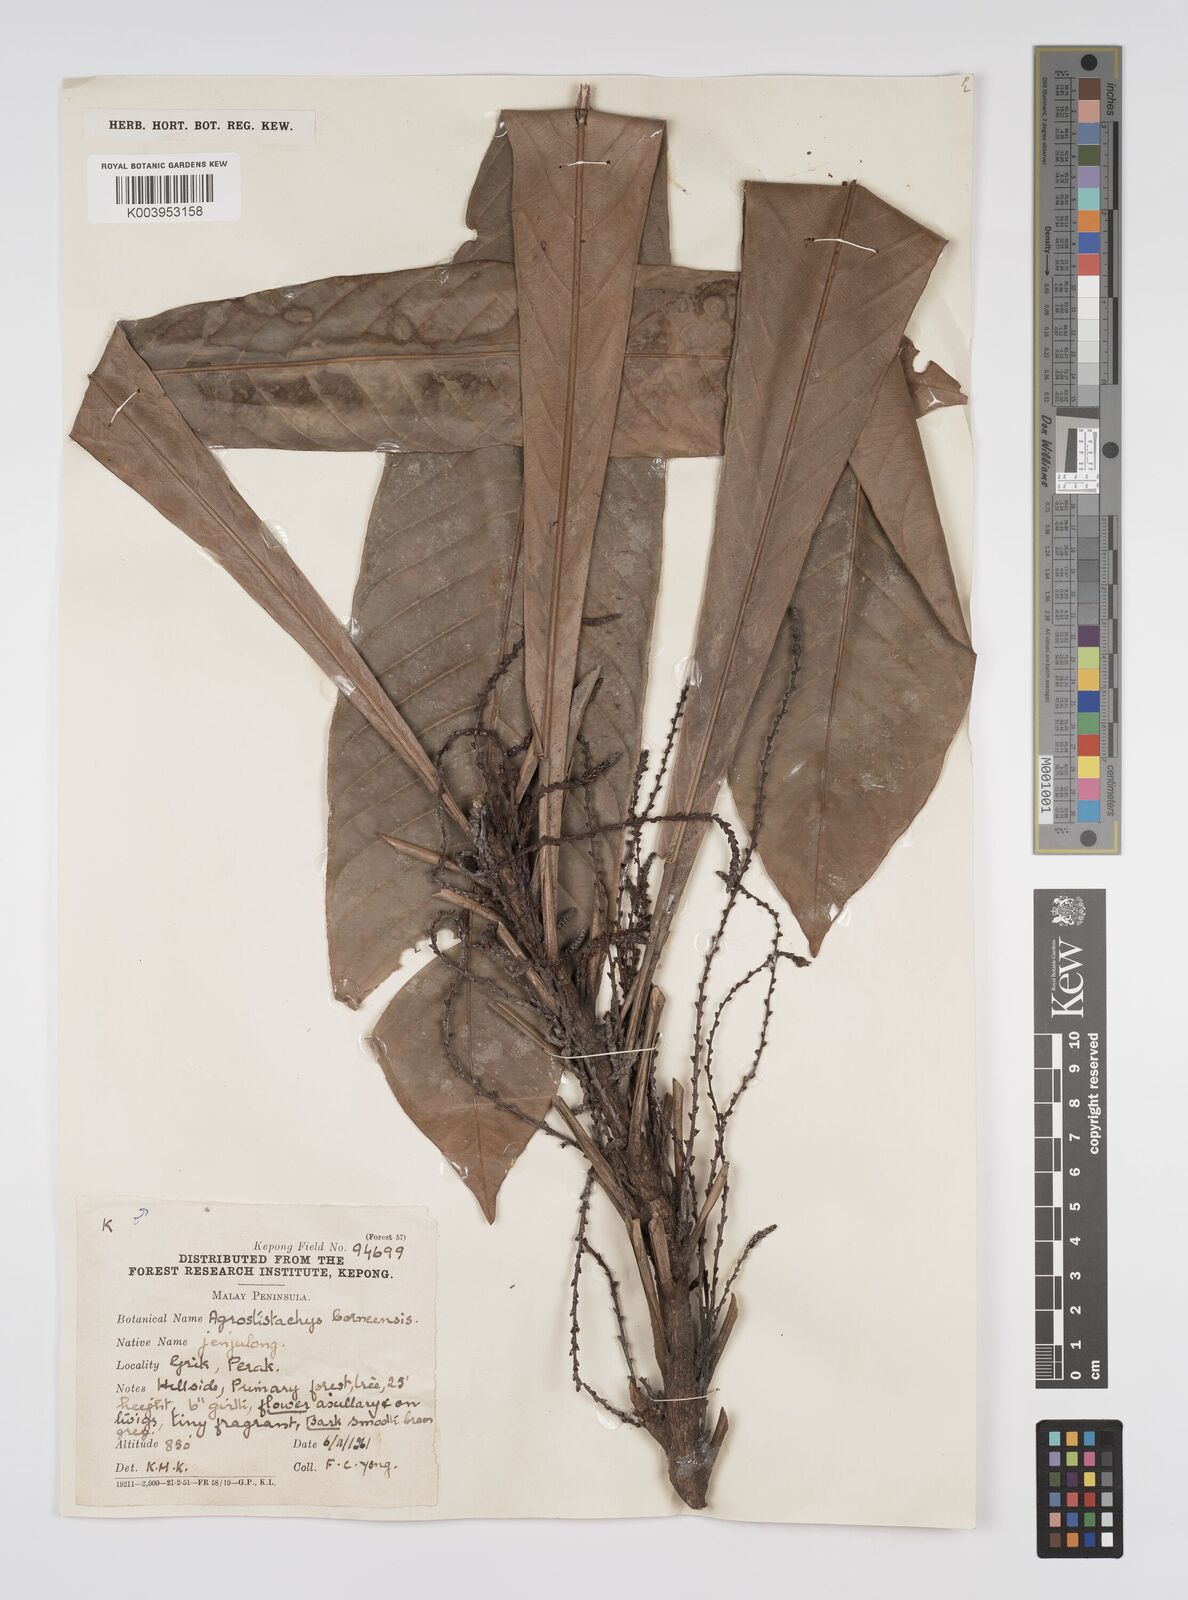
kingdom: Plantae
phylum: Tracheophyta
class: Magnoliopsida
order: Malpighiales
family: Euphorbiaceae
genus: Agrostistachys
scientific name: Agrostistachys borneensis
